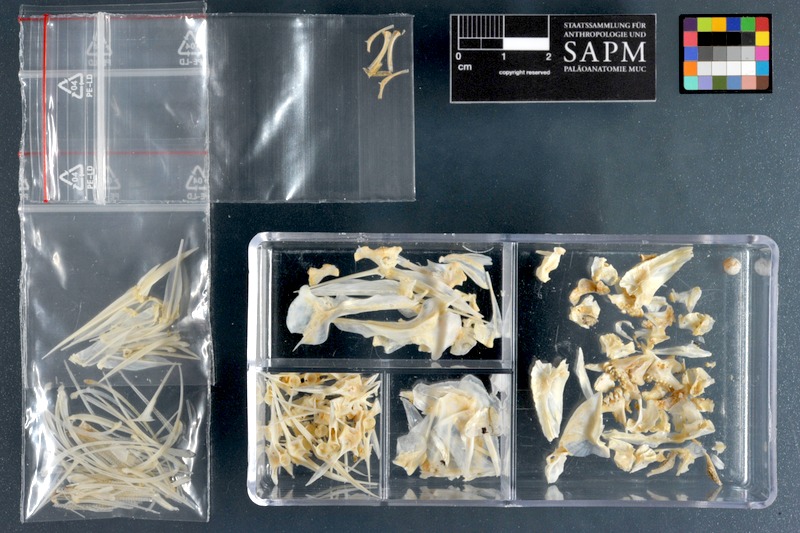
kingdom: Animalia
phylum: Chordata
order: Perciformes
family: Sparidae
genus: Crenidens
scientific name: Crenidens crenidens
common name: Karenteen seabream
